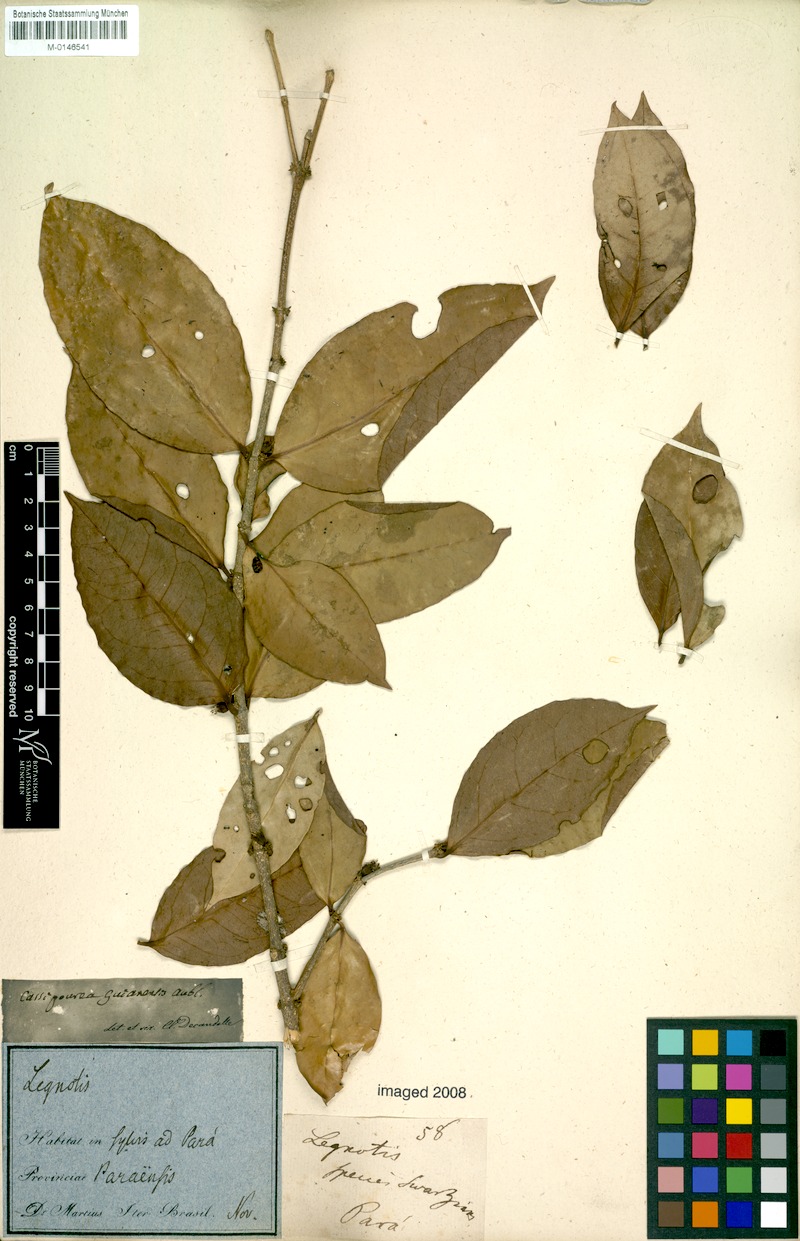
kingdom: Plantae
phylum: Tracheophyta
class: Magnoliopsida
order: Malpighiales
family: Rhizophoraceae
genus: Cassipourea
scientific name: Cassipourea guianensis
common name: Bastard waterwood
